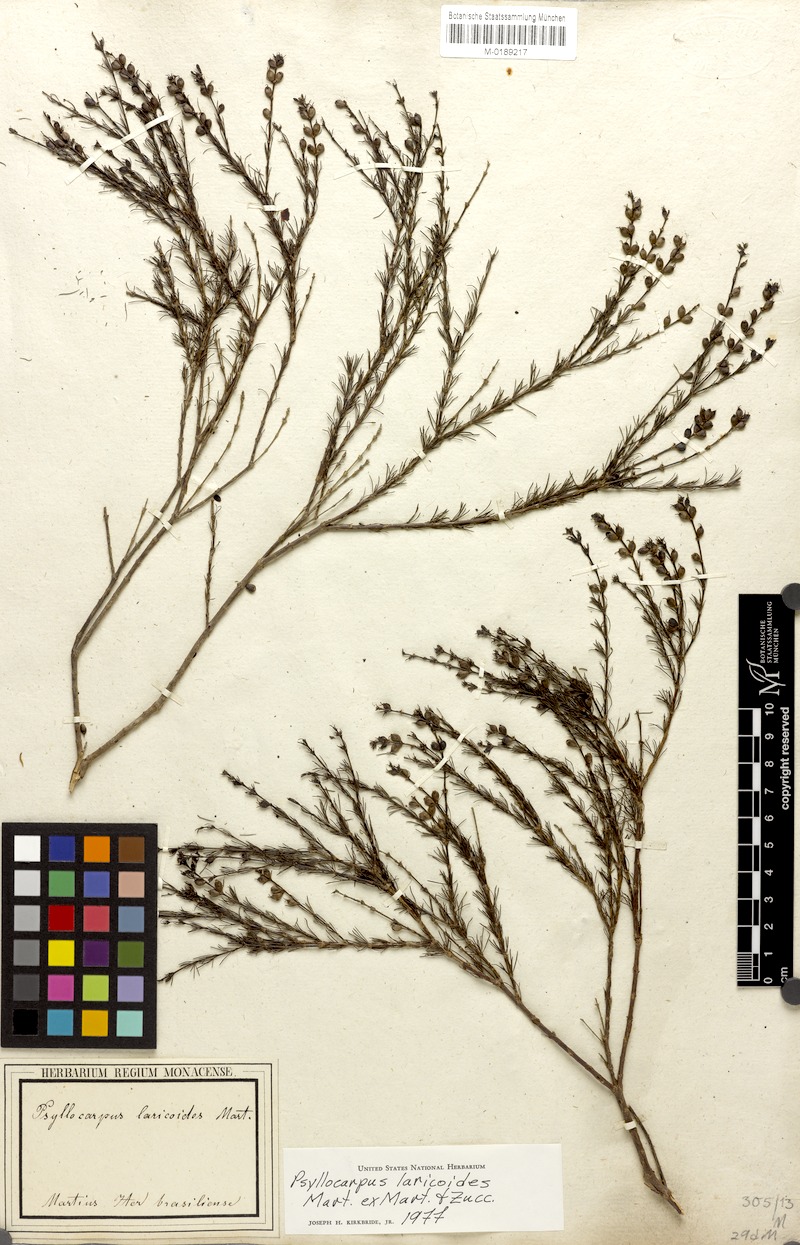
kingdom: Plantae
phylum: Tracheophyta
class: Magnoliopsida
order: Gentianales
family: Rubiaceae
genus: Psyllocarpus
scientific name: Psyllocarpus laricoides
